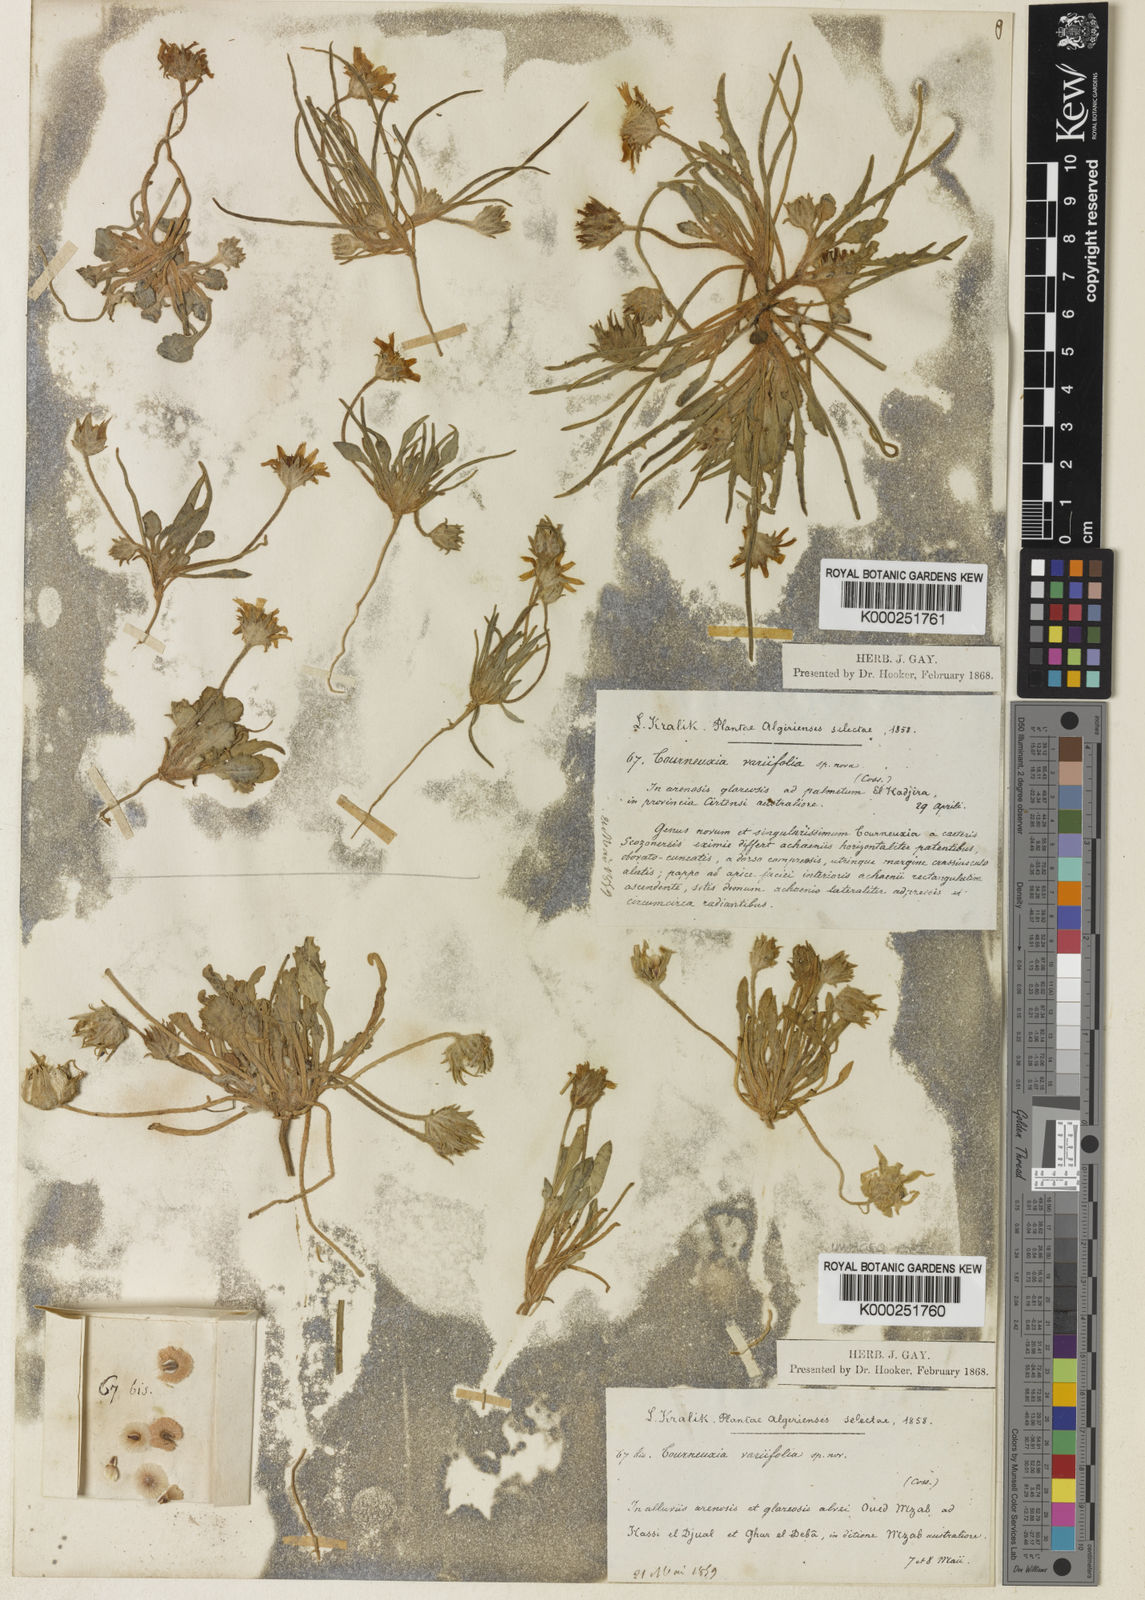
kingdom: Plantae
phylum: Tracheophyta
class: Magnoliopsida
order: Asterales
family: Asteraceae
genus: Tourneuxia
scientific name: Tourneuxia variifolia
